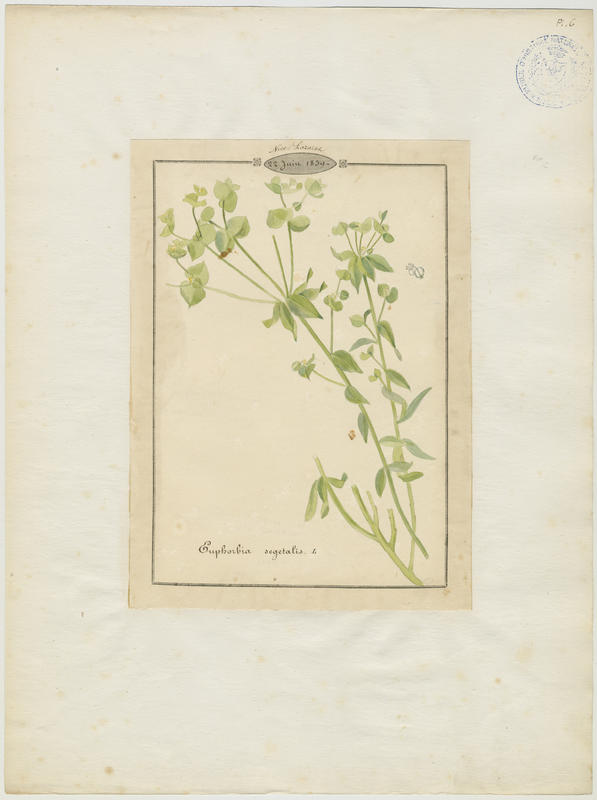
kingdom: Plantae
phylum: Tracheophyta
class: Magnoliopsida
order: Malpighiales
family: Euphorbiaceae
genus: Euphorbia
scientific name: Euphorbia segetalis
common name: Corn spurge
